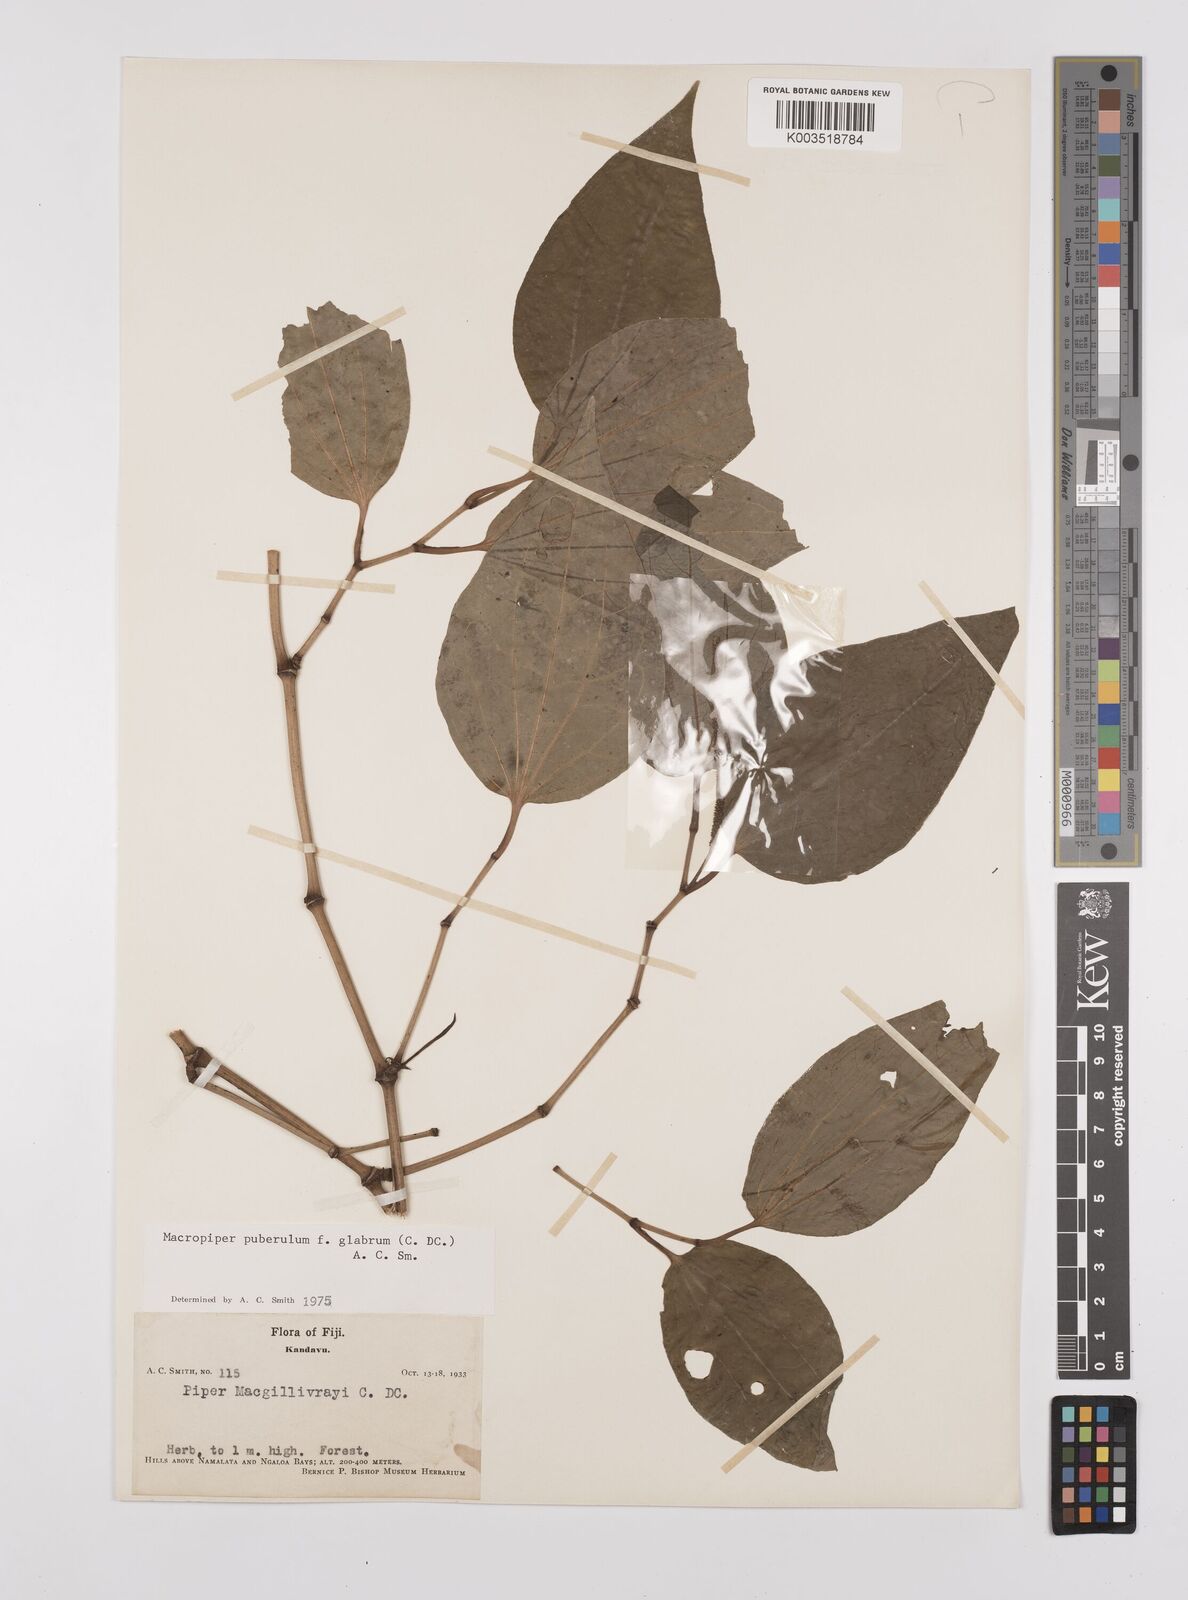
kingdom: Plantae
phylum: Tracheophyta
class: Magnoliopsida
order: Piperales
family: Piperaceae
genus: Macropiper
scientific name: Macropiper puberulum
